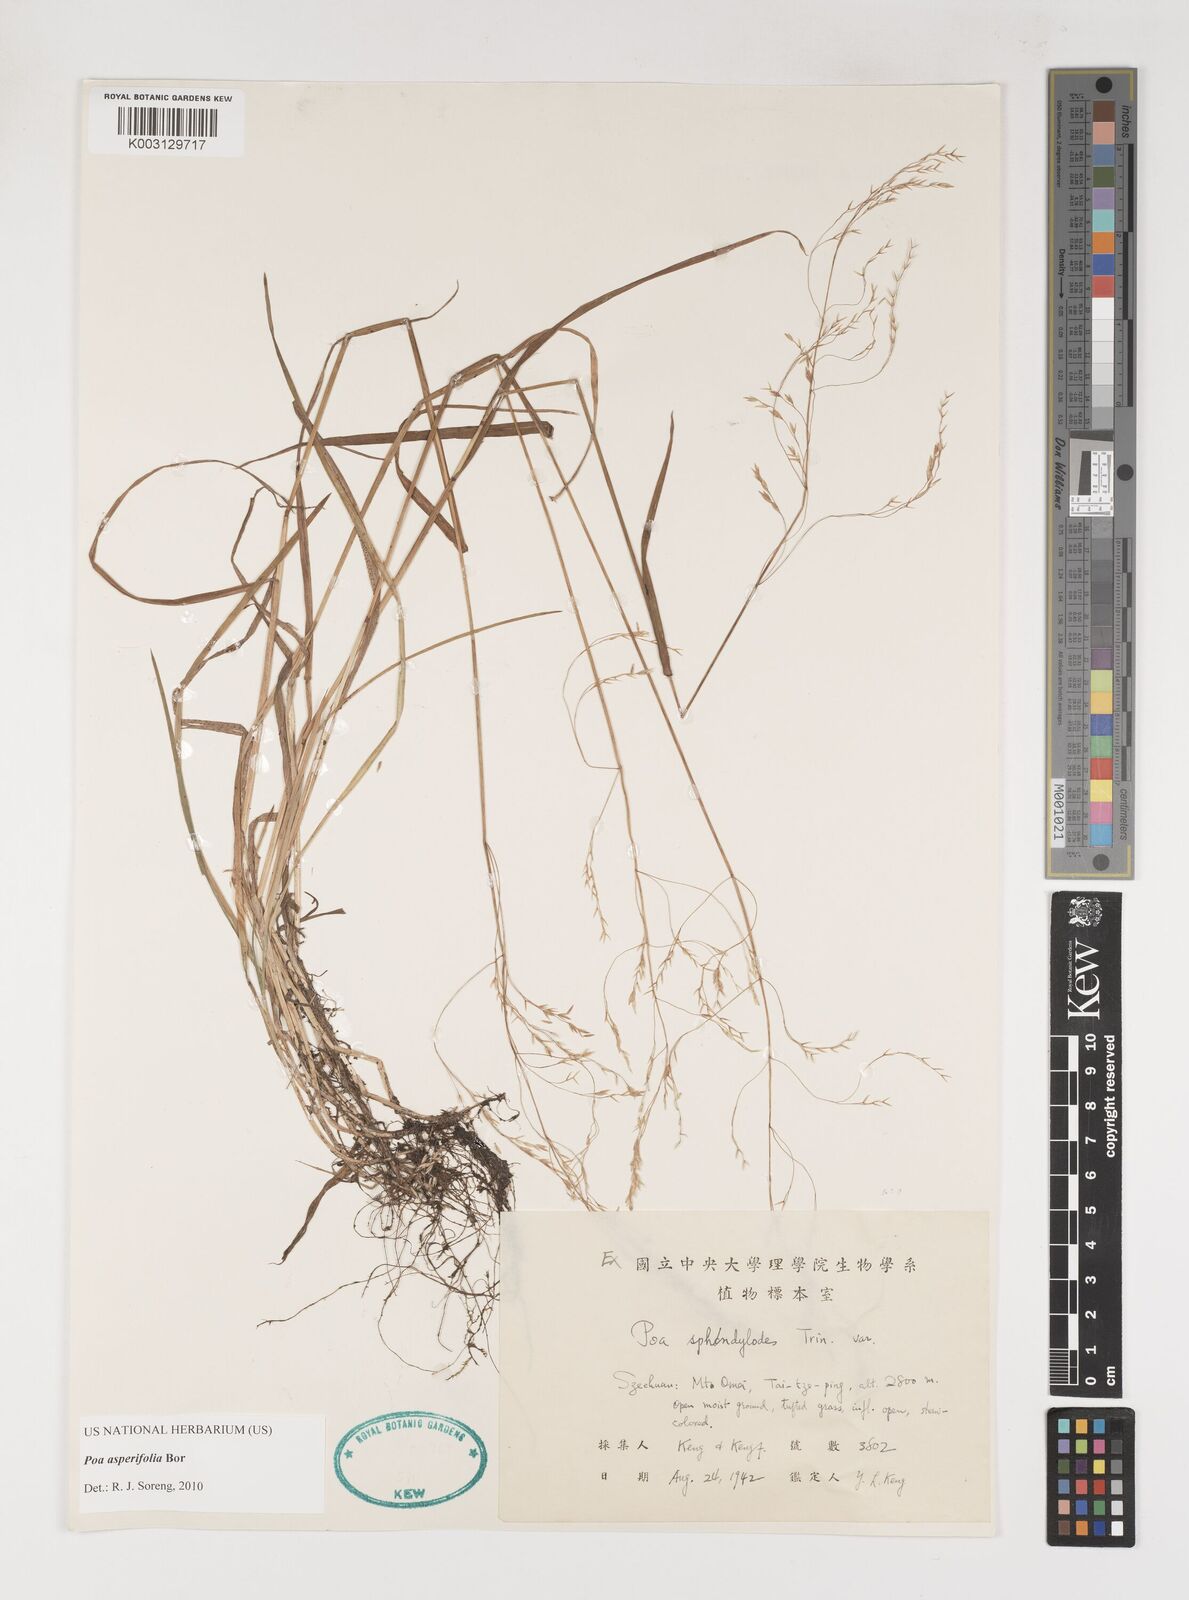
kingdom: Plantae
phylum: Tracheophyta
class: Liliopsida
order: Poales
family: Poaceae
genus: Poa
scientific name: Poa asperifolia
